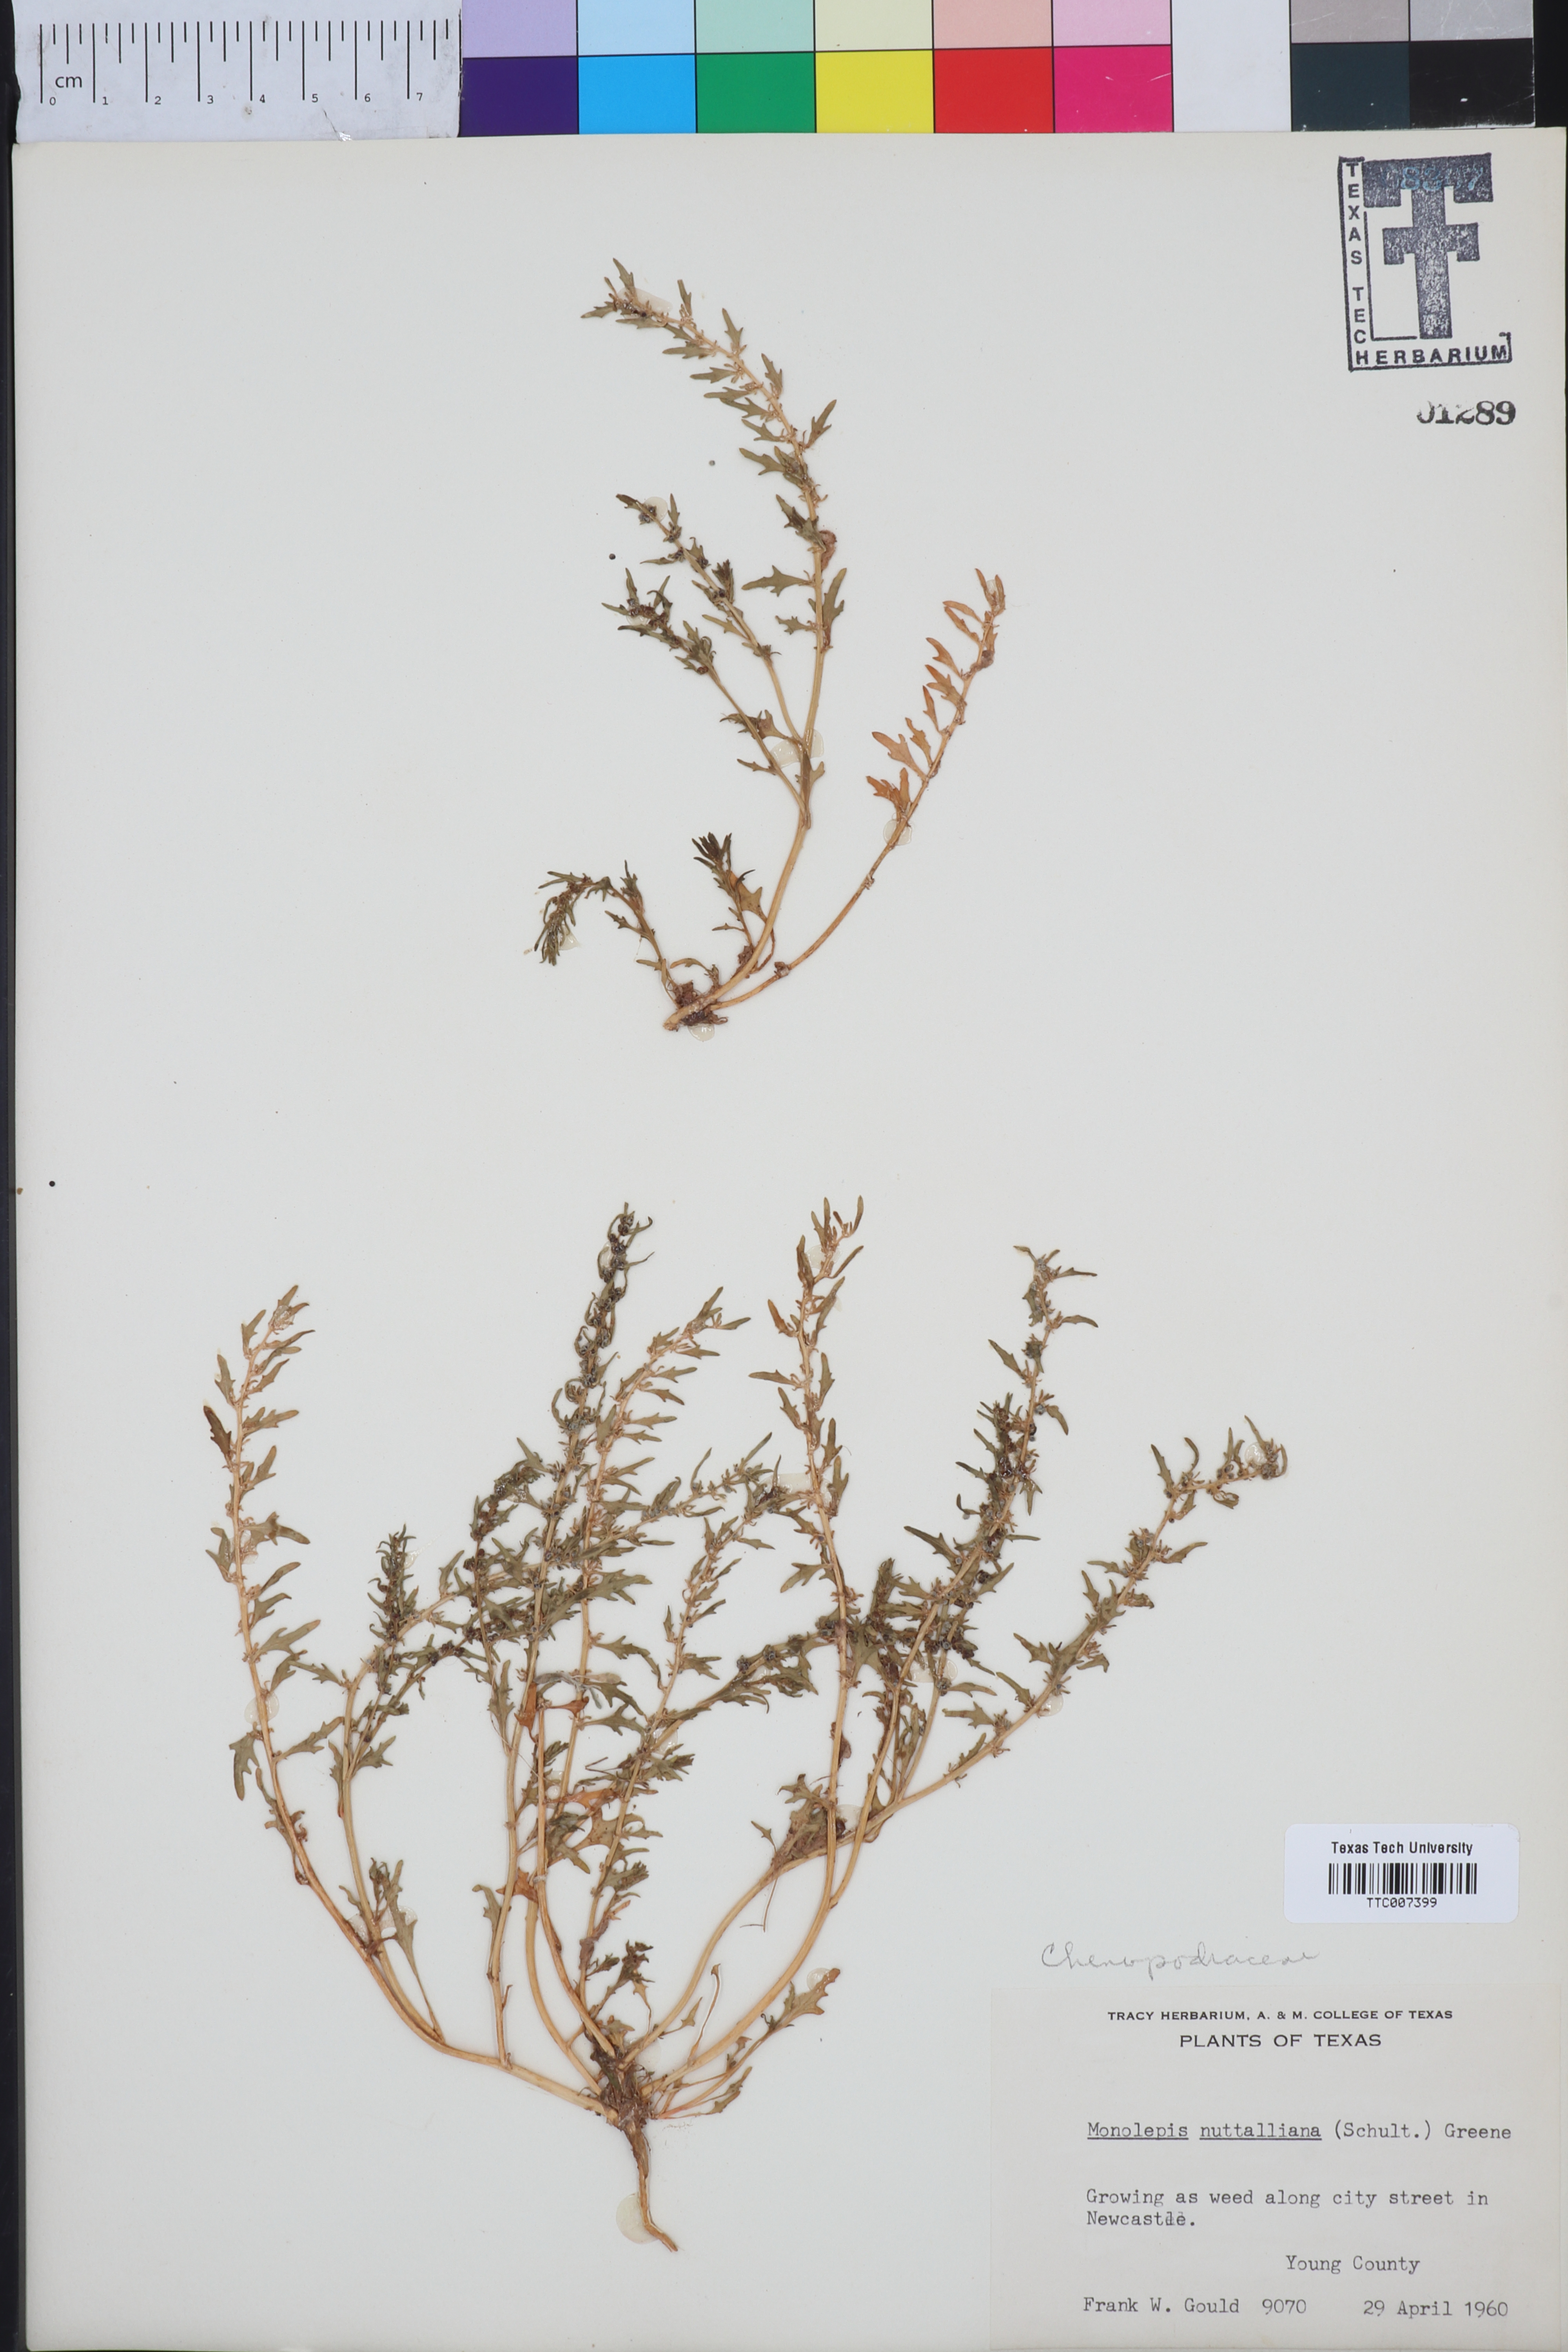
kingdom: Plantae
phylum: Tracheophyta
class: Magnoliopsida
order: Caryophyllales
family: Amaranthaceae
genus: Blitum
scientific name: Blitum nuttallianum
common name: Poverty-weed
